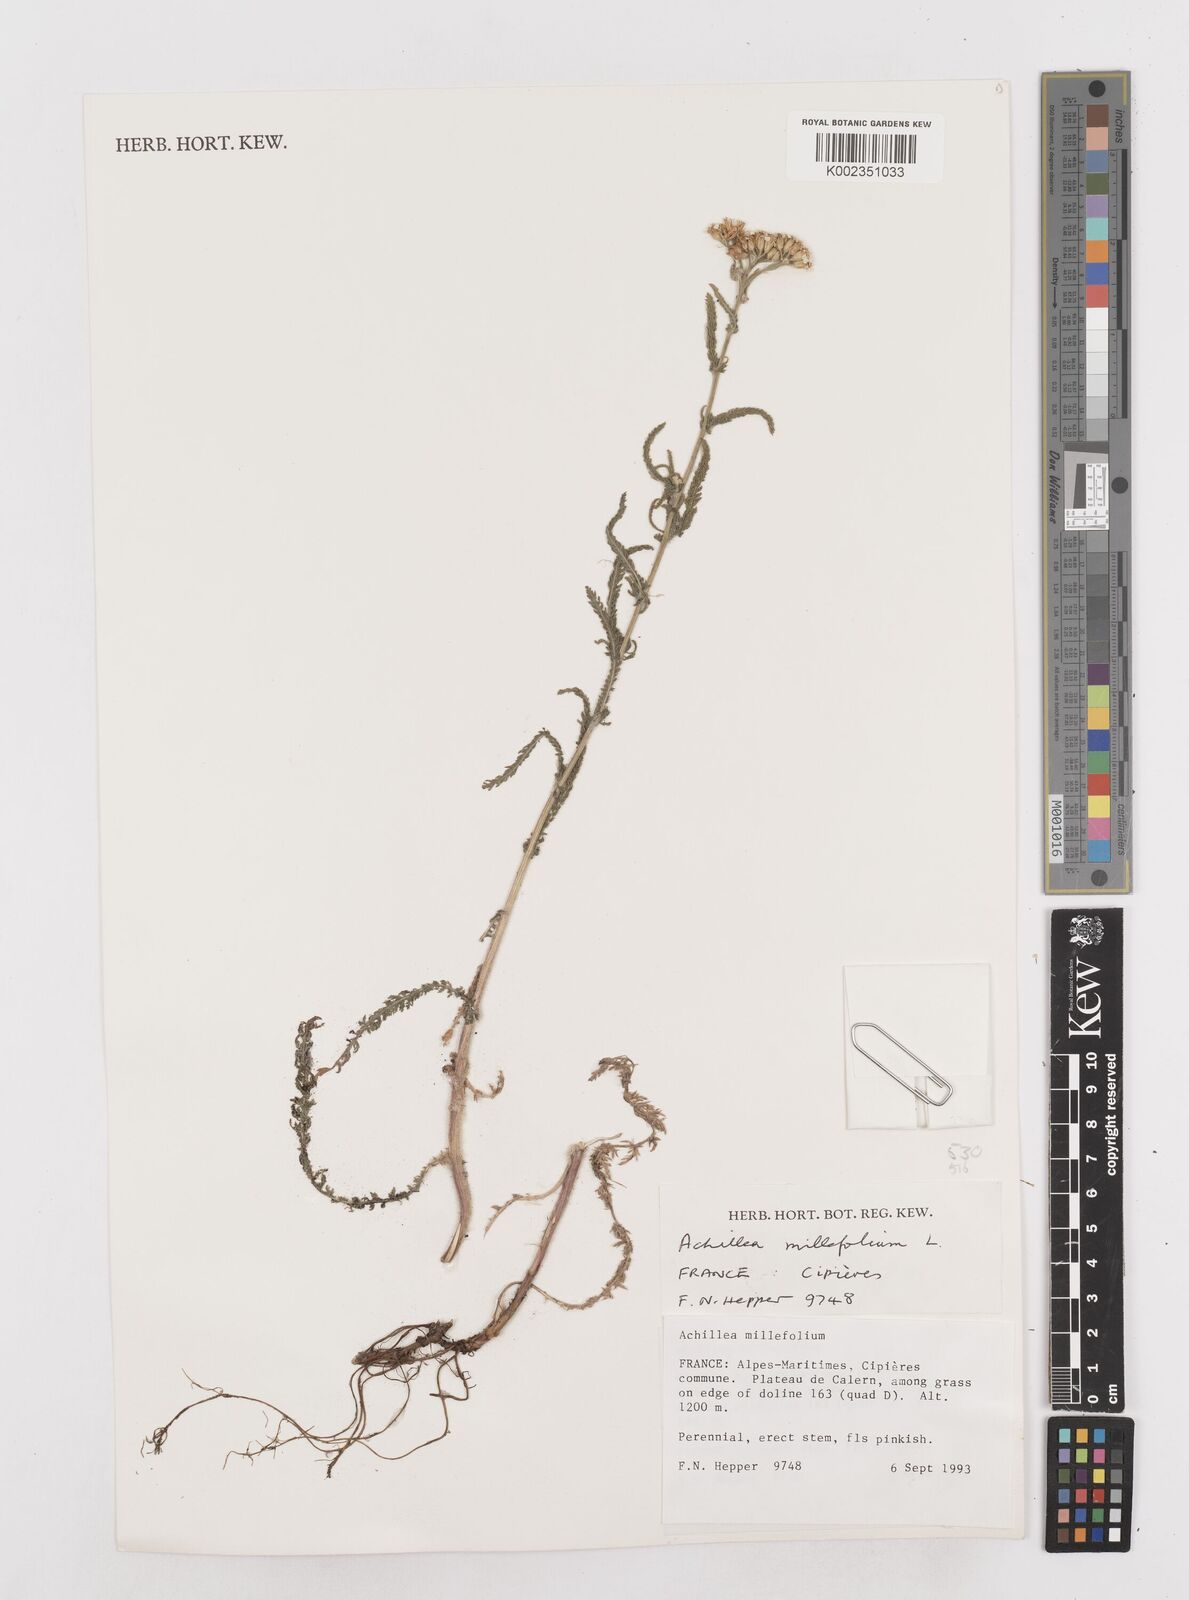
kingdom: Plantae
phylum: Tracheophyta
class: Magnoliopsida
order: Asterales
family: Asteraceae
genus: Achillea
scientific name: Achillea millefolium
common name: Yarrow
